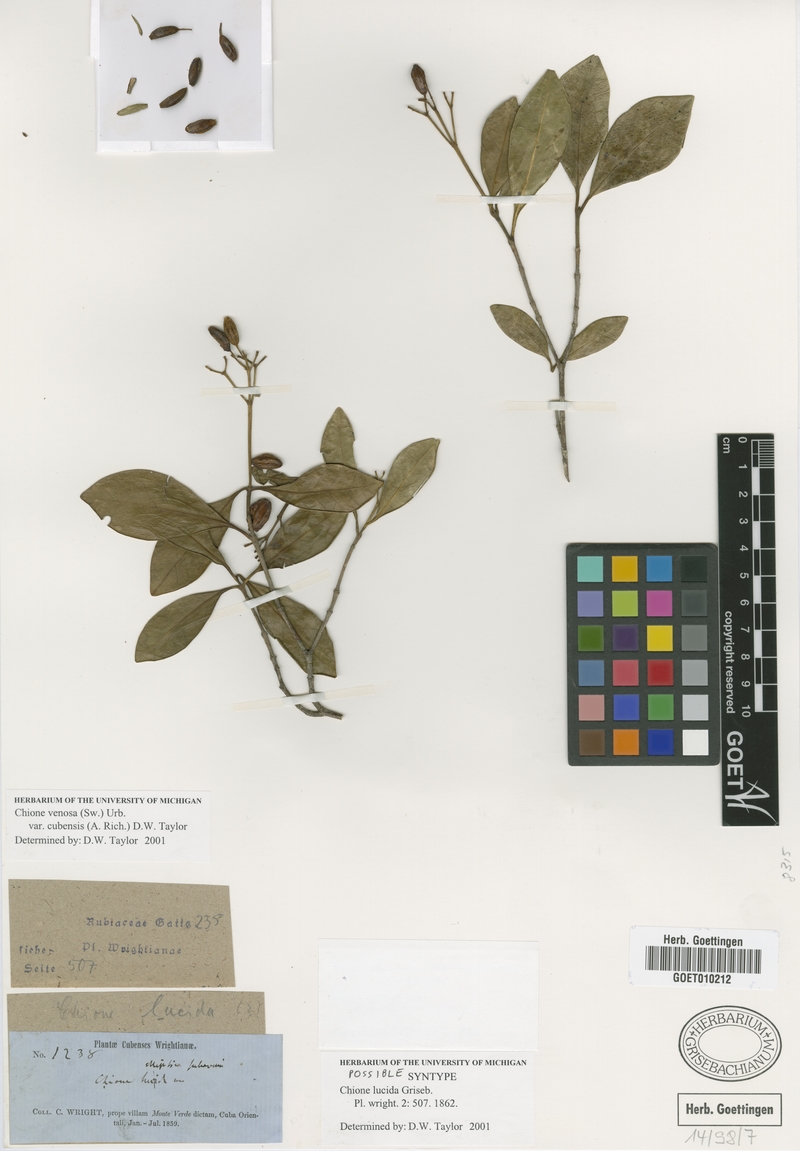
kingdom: Plantae
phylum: Tracheophyta
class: Magnoliopsida
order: Gentianales
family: Rubiaceae
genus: Chione
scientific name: Chione venosa
